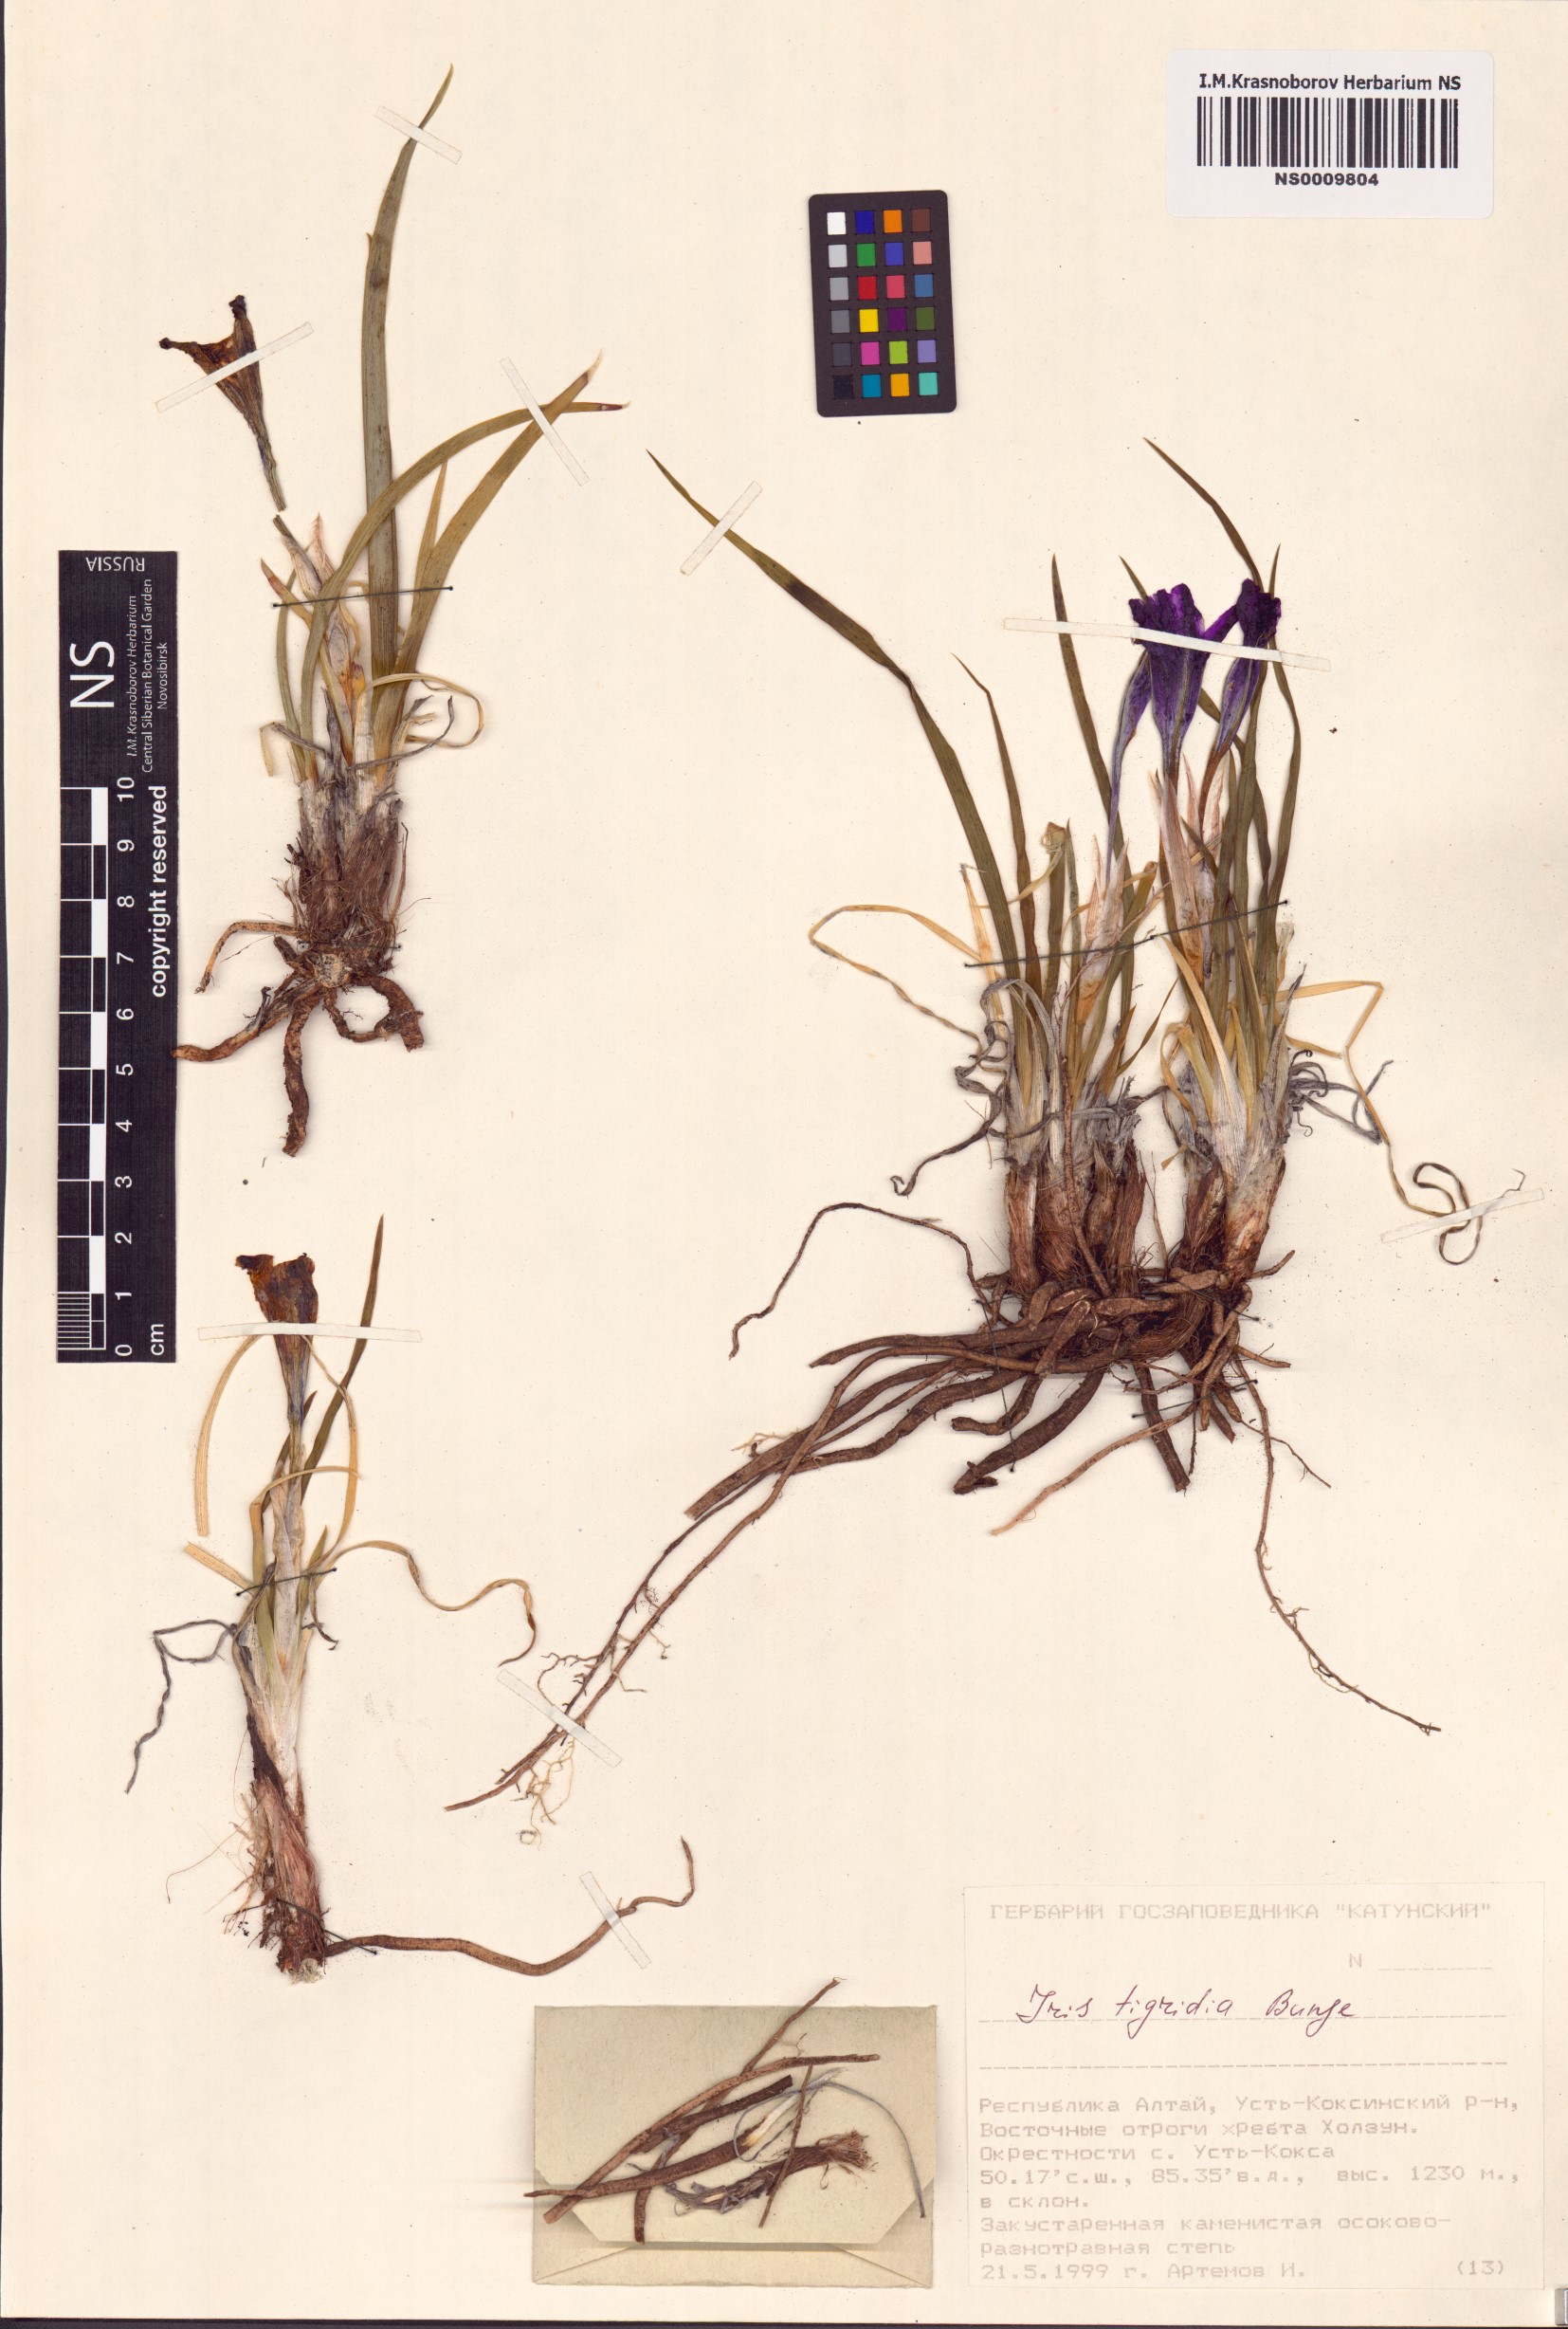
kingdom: Plantae
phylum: Tracheophyta
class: Liliopsida
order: Asparagales
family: Iridaceae
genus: Iris
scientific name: Iris tigridia
